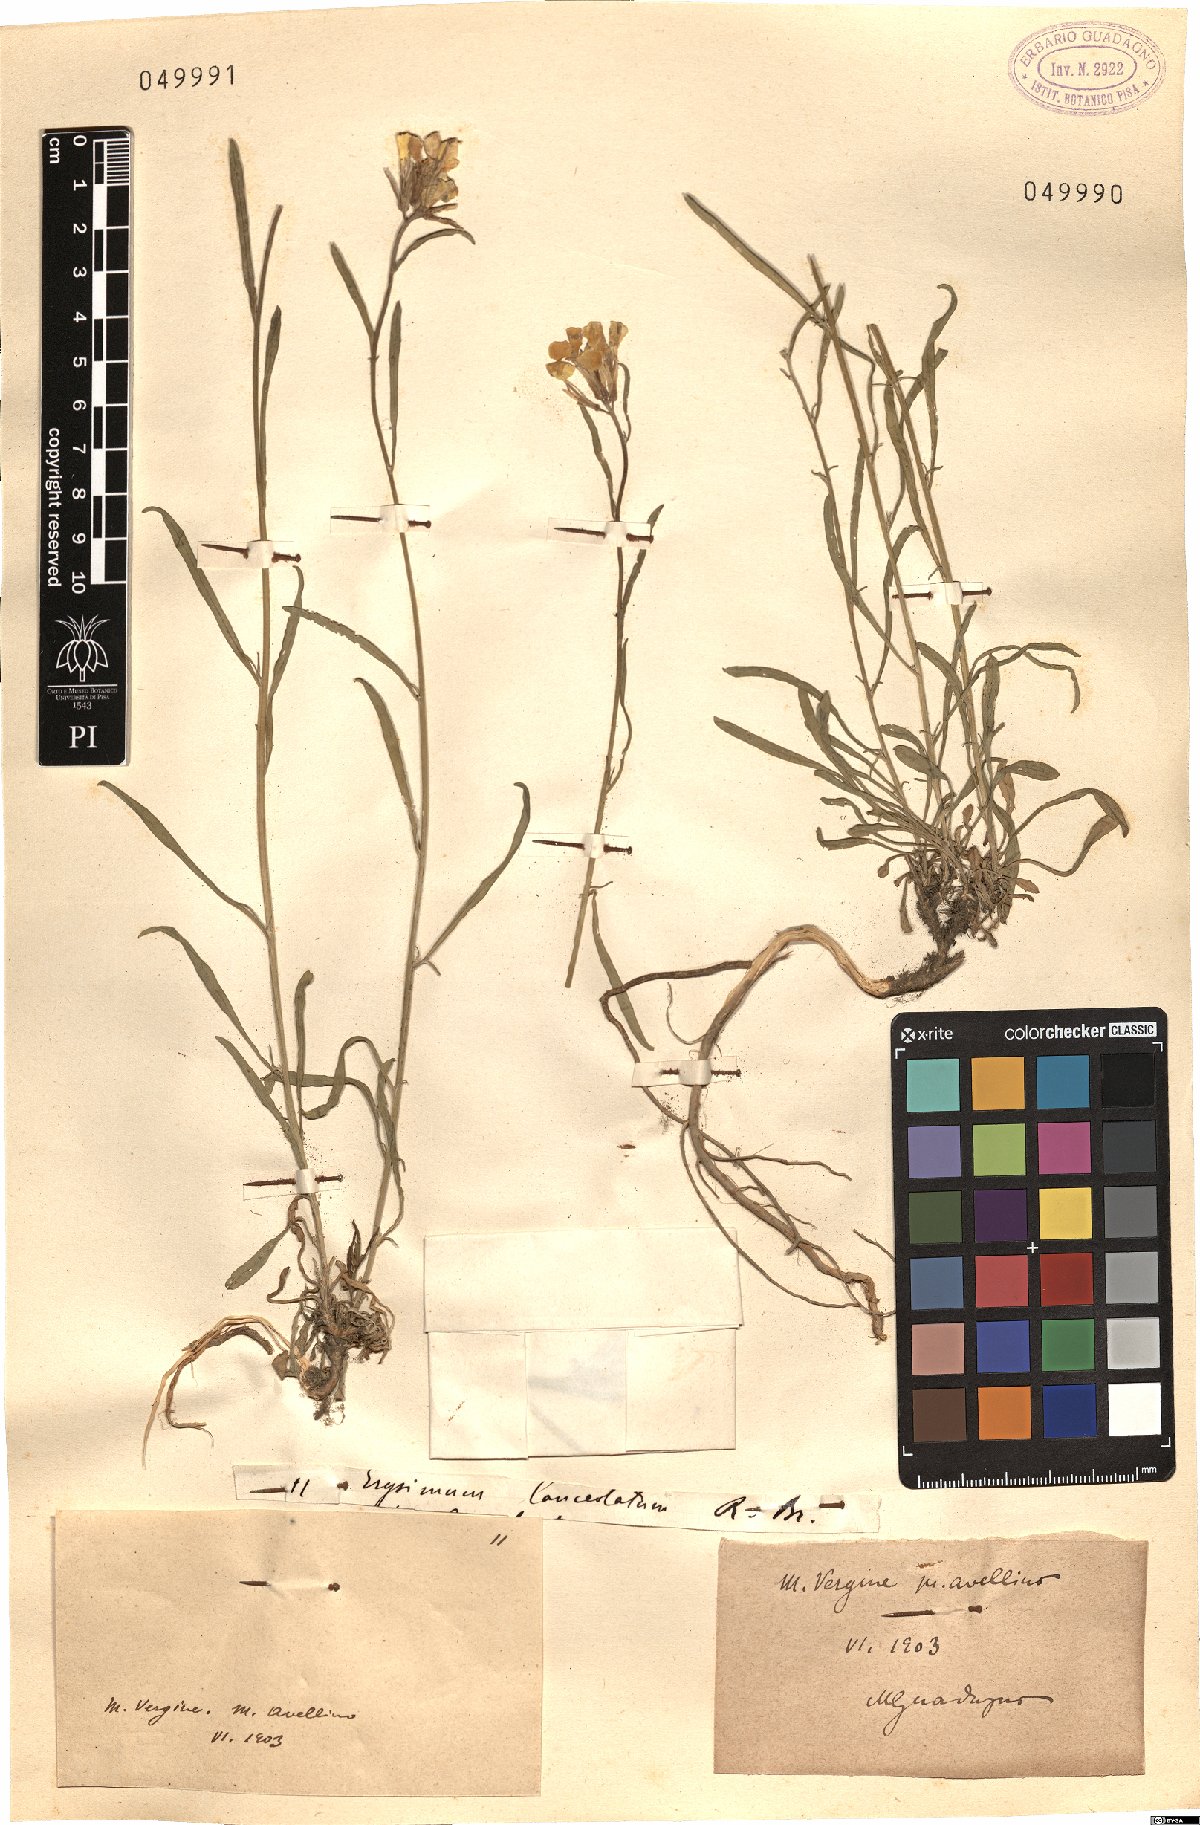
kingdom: Plantae
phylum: Tracheophyta
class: Magnoliopsida
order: Brassicales
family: Brassicaceae
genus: Erysimum
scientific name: Erysimum
